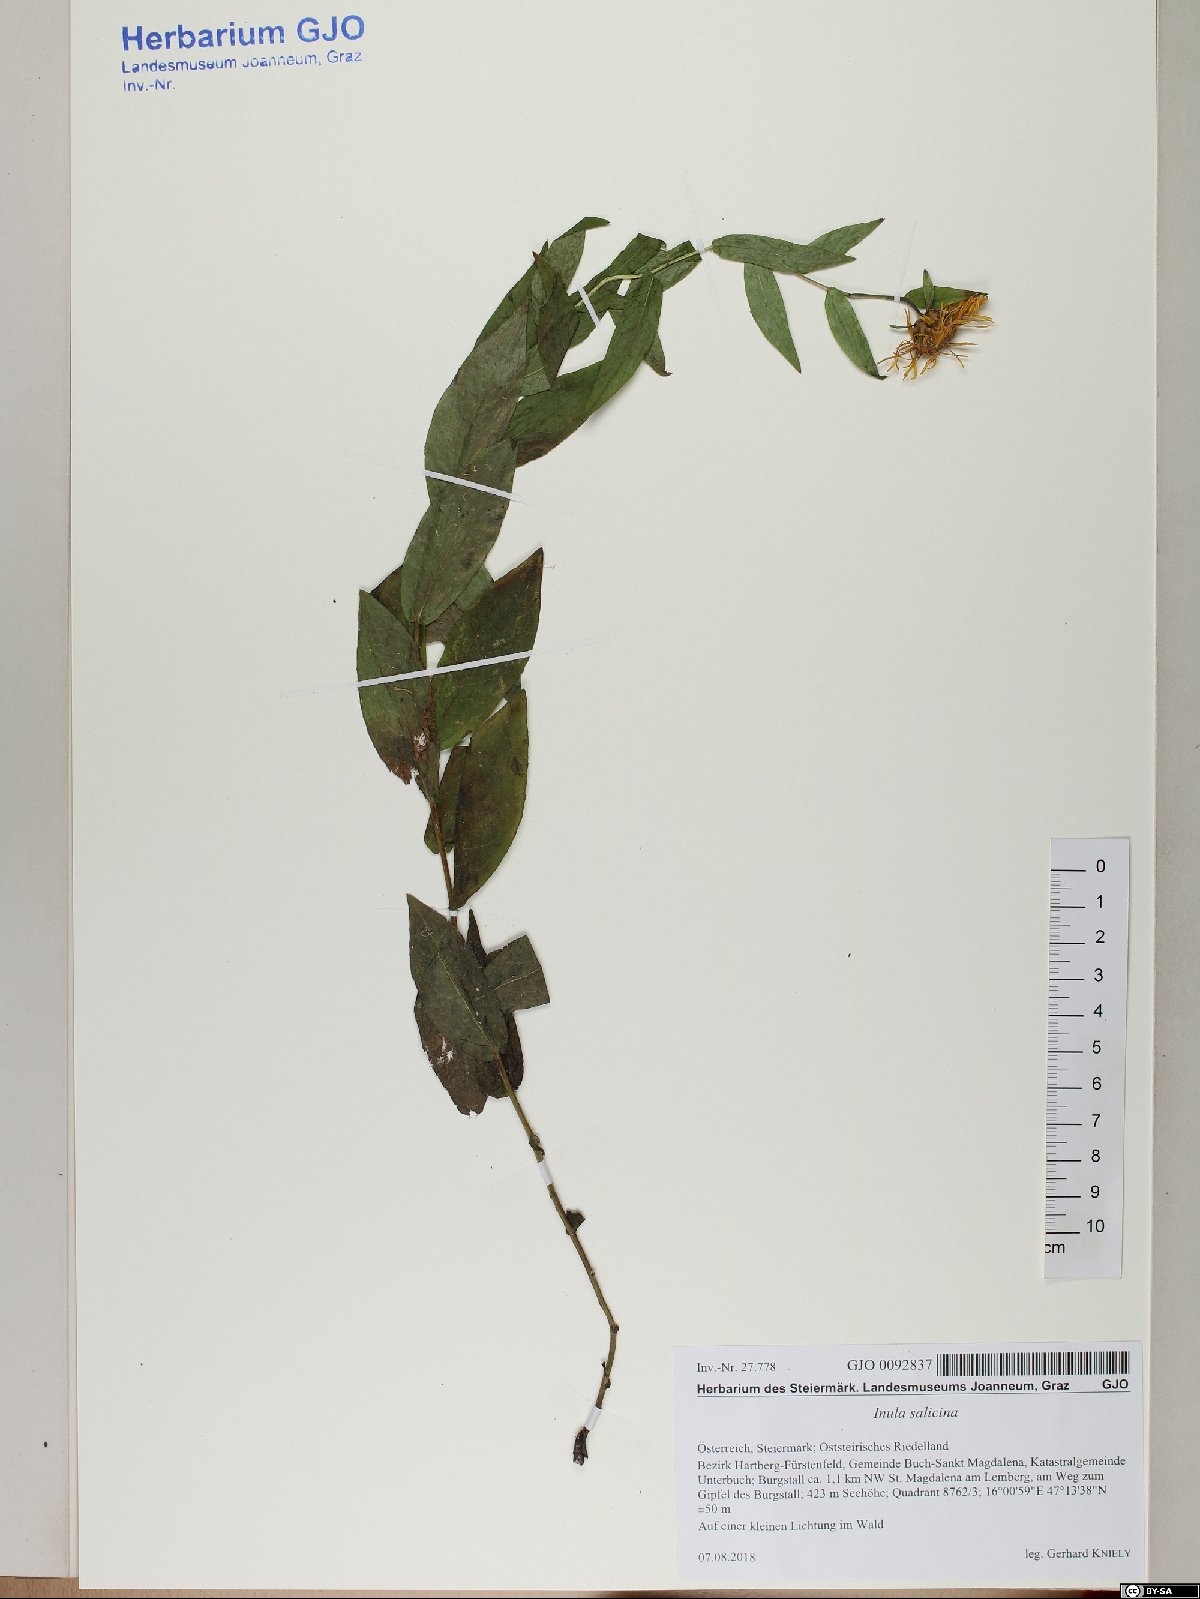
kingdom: Plantae
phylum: Tracheophyta
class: Magnoliopsida
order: Asterales
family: Asteraceae
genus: Pentanema
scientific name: Pentanema salicinum
